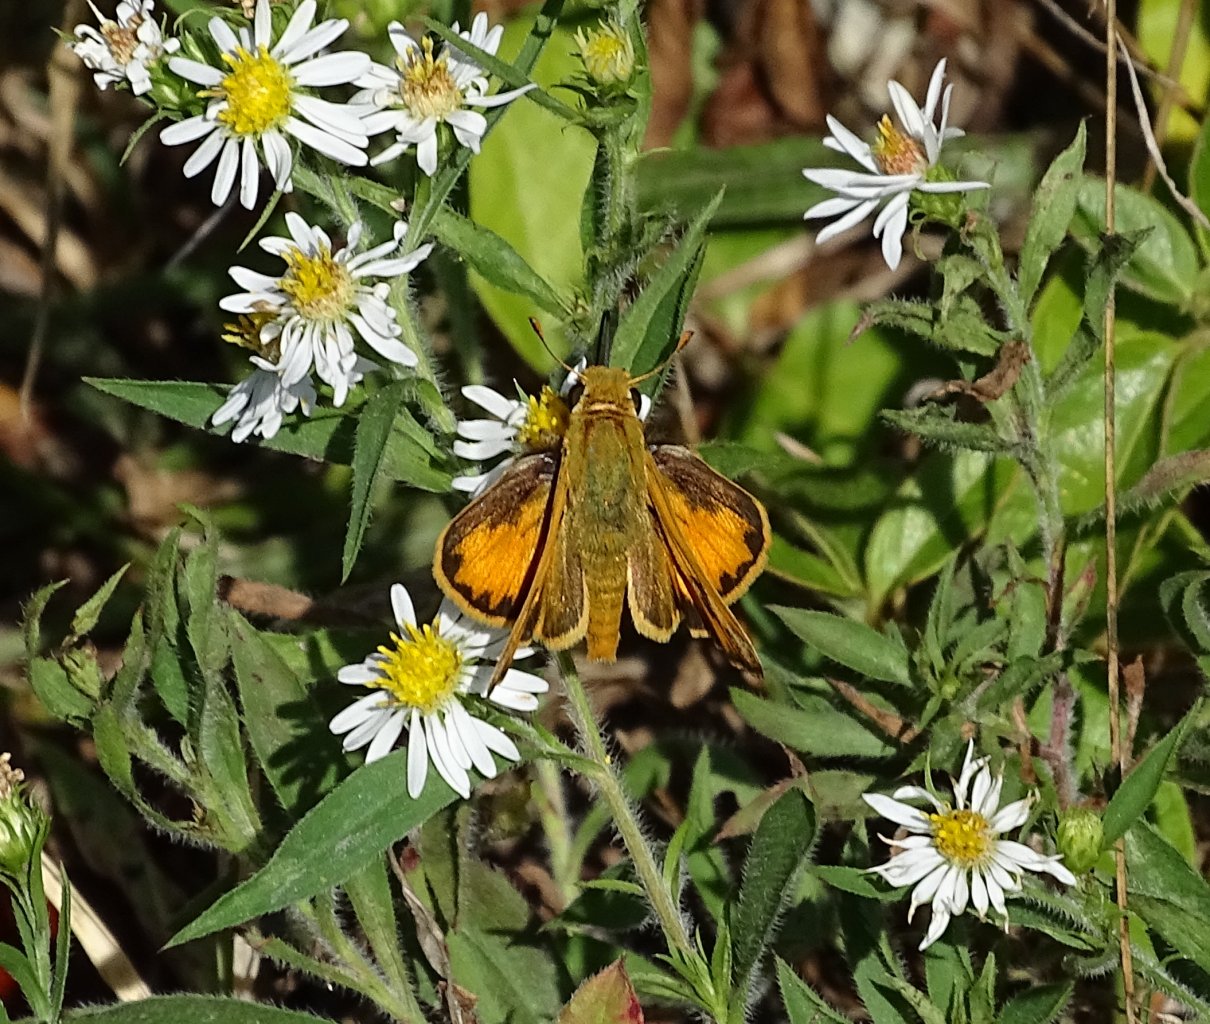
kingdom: Animalia
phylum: Arthropoda
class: Insecta
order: Lepidoptera
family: Hesperiidae
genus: Hylephila
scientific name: Hylephila phyleus
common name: Fiery Skipper
